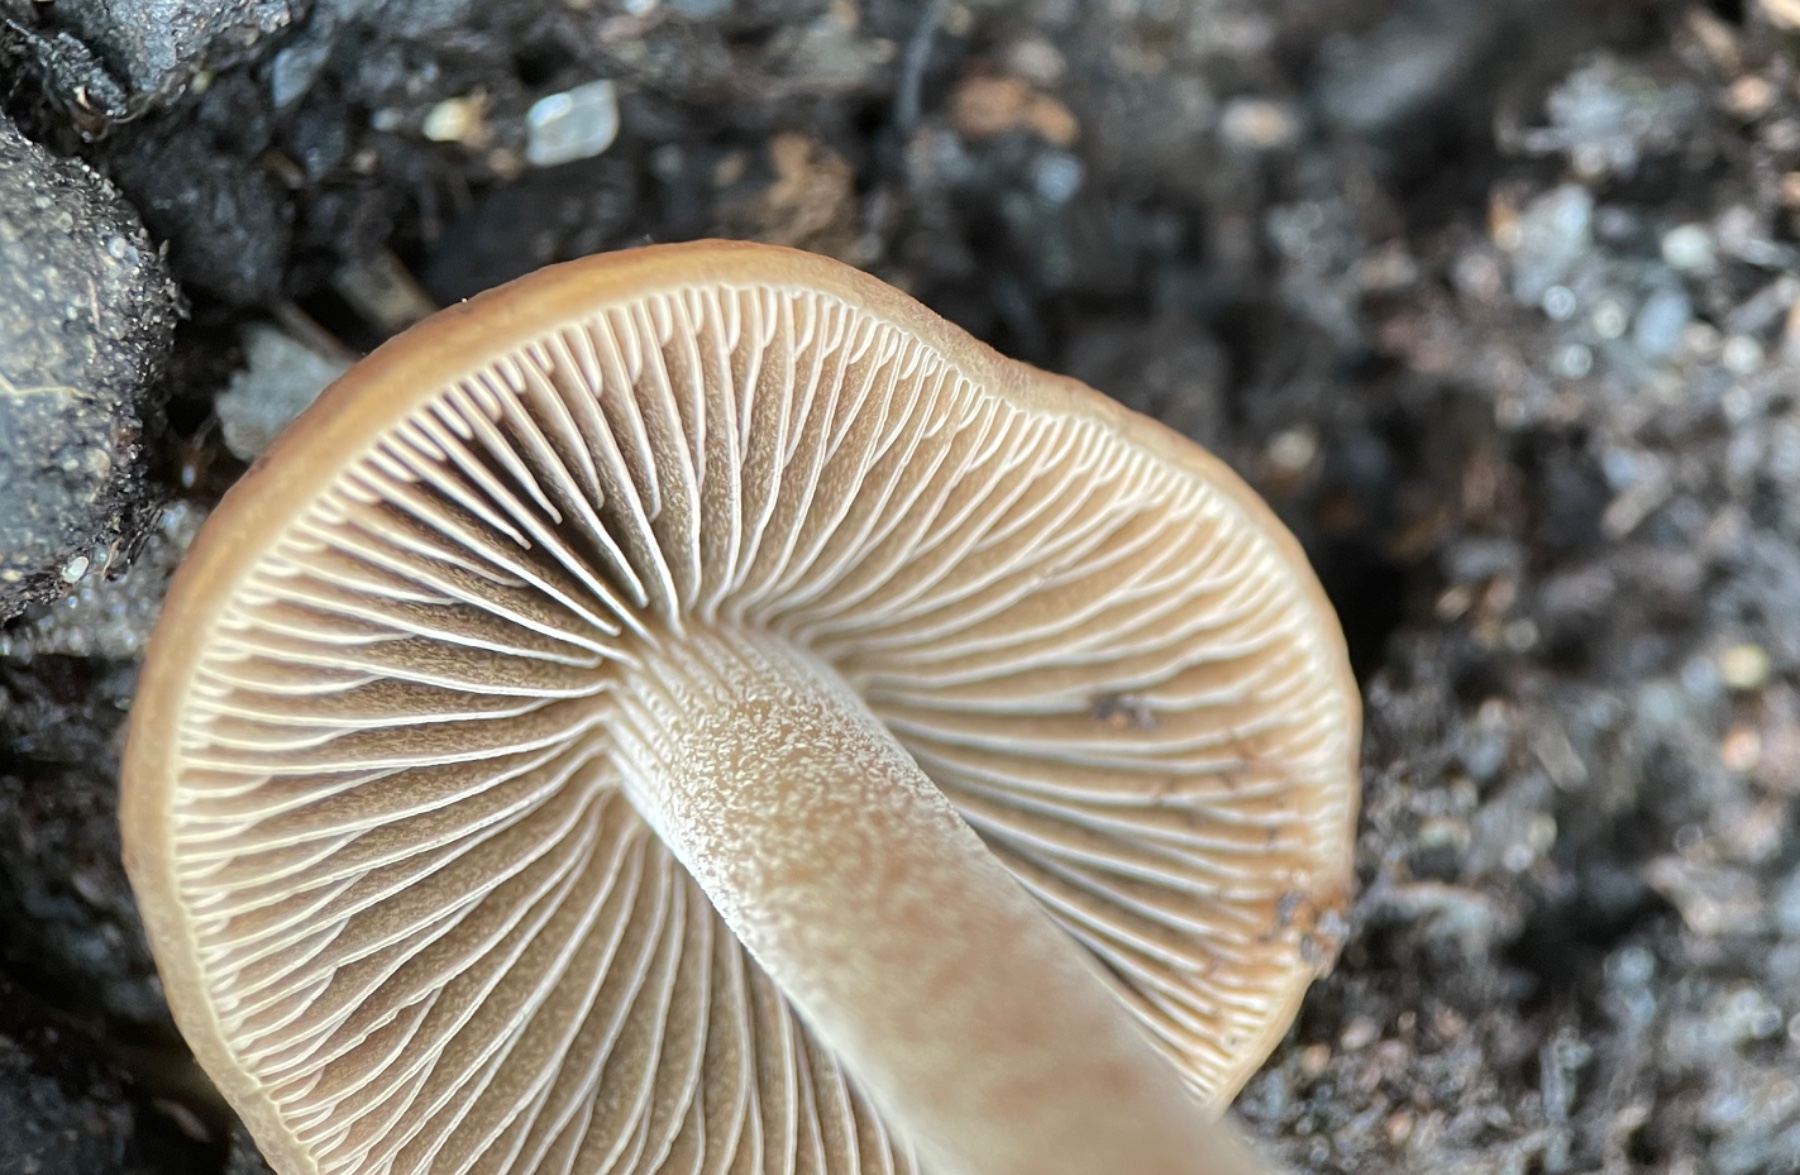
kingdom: Fungi
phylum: Basidiomycota
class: Agaricomycetes
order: Agaricales
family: Bolbitiaceae
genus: Panaeolus
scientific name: Panaeolus cinctulus
